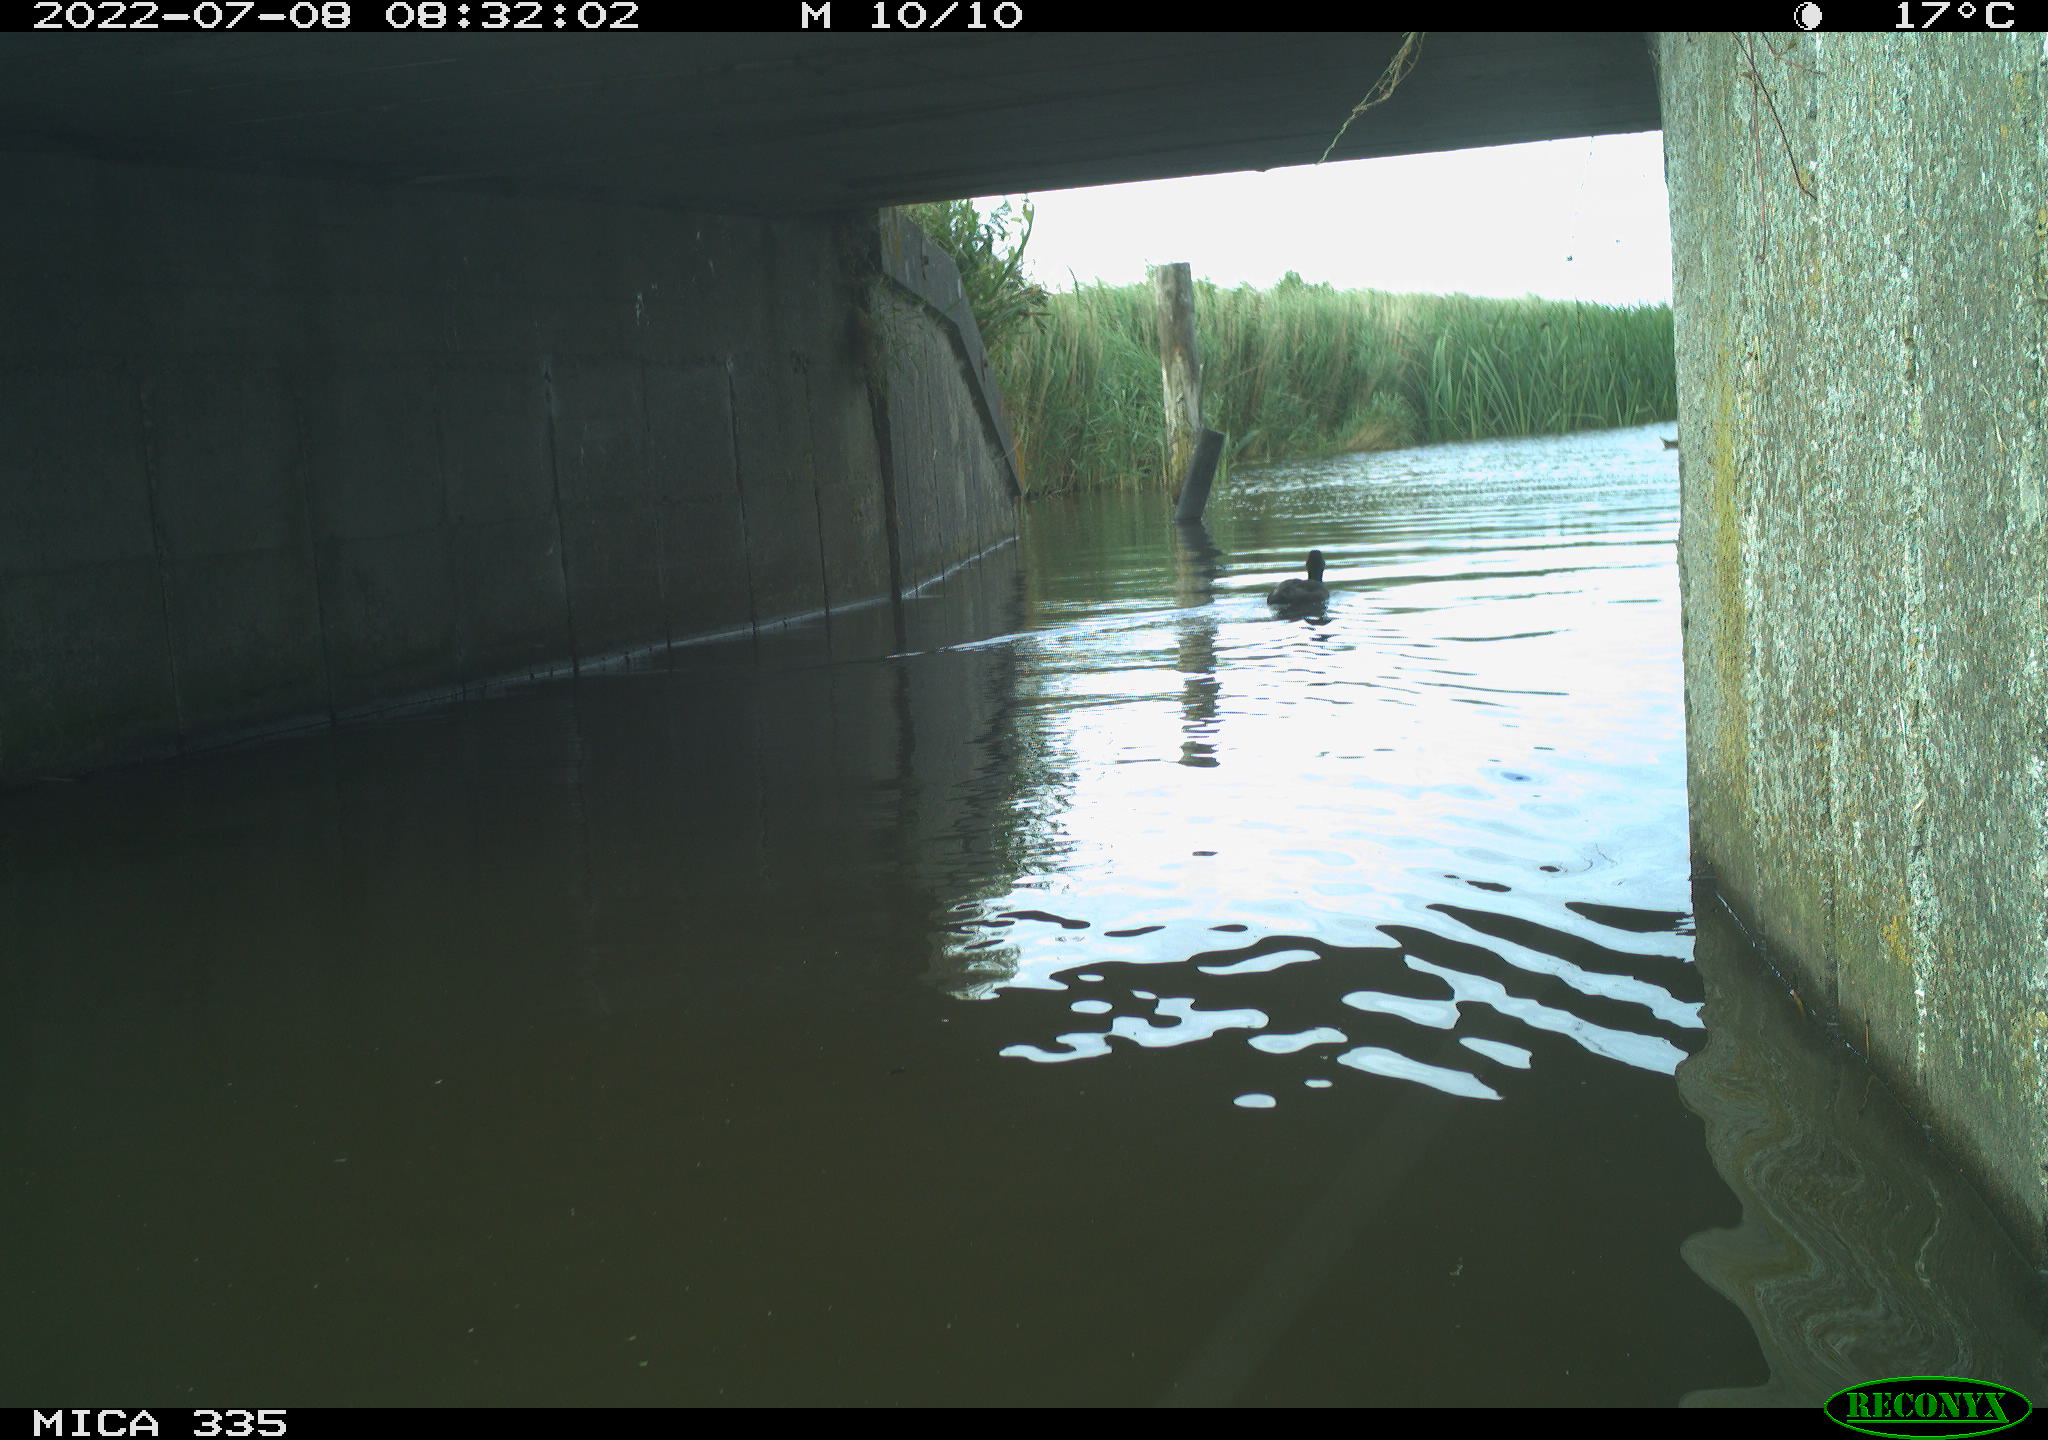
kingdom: Animalia
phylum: Chordata
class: Aves
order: Anseriformes
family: Anatidae
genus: Anas
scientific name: Anas platyrhynchos
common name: Mallard
